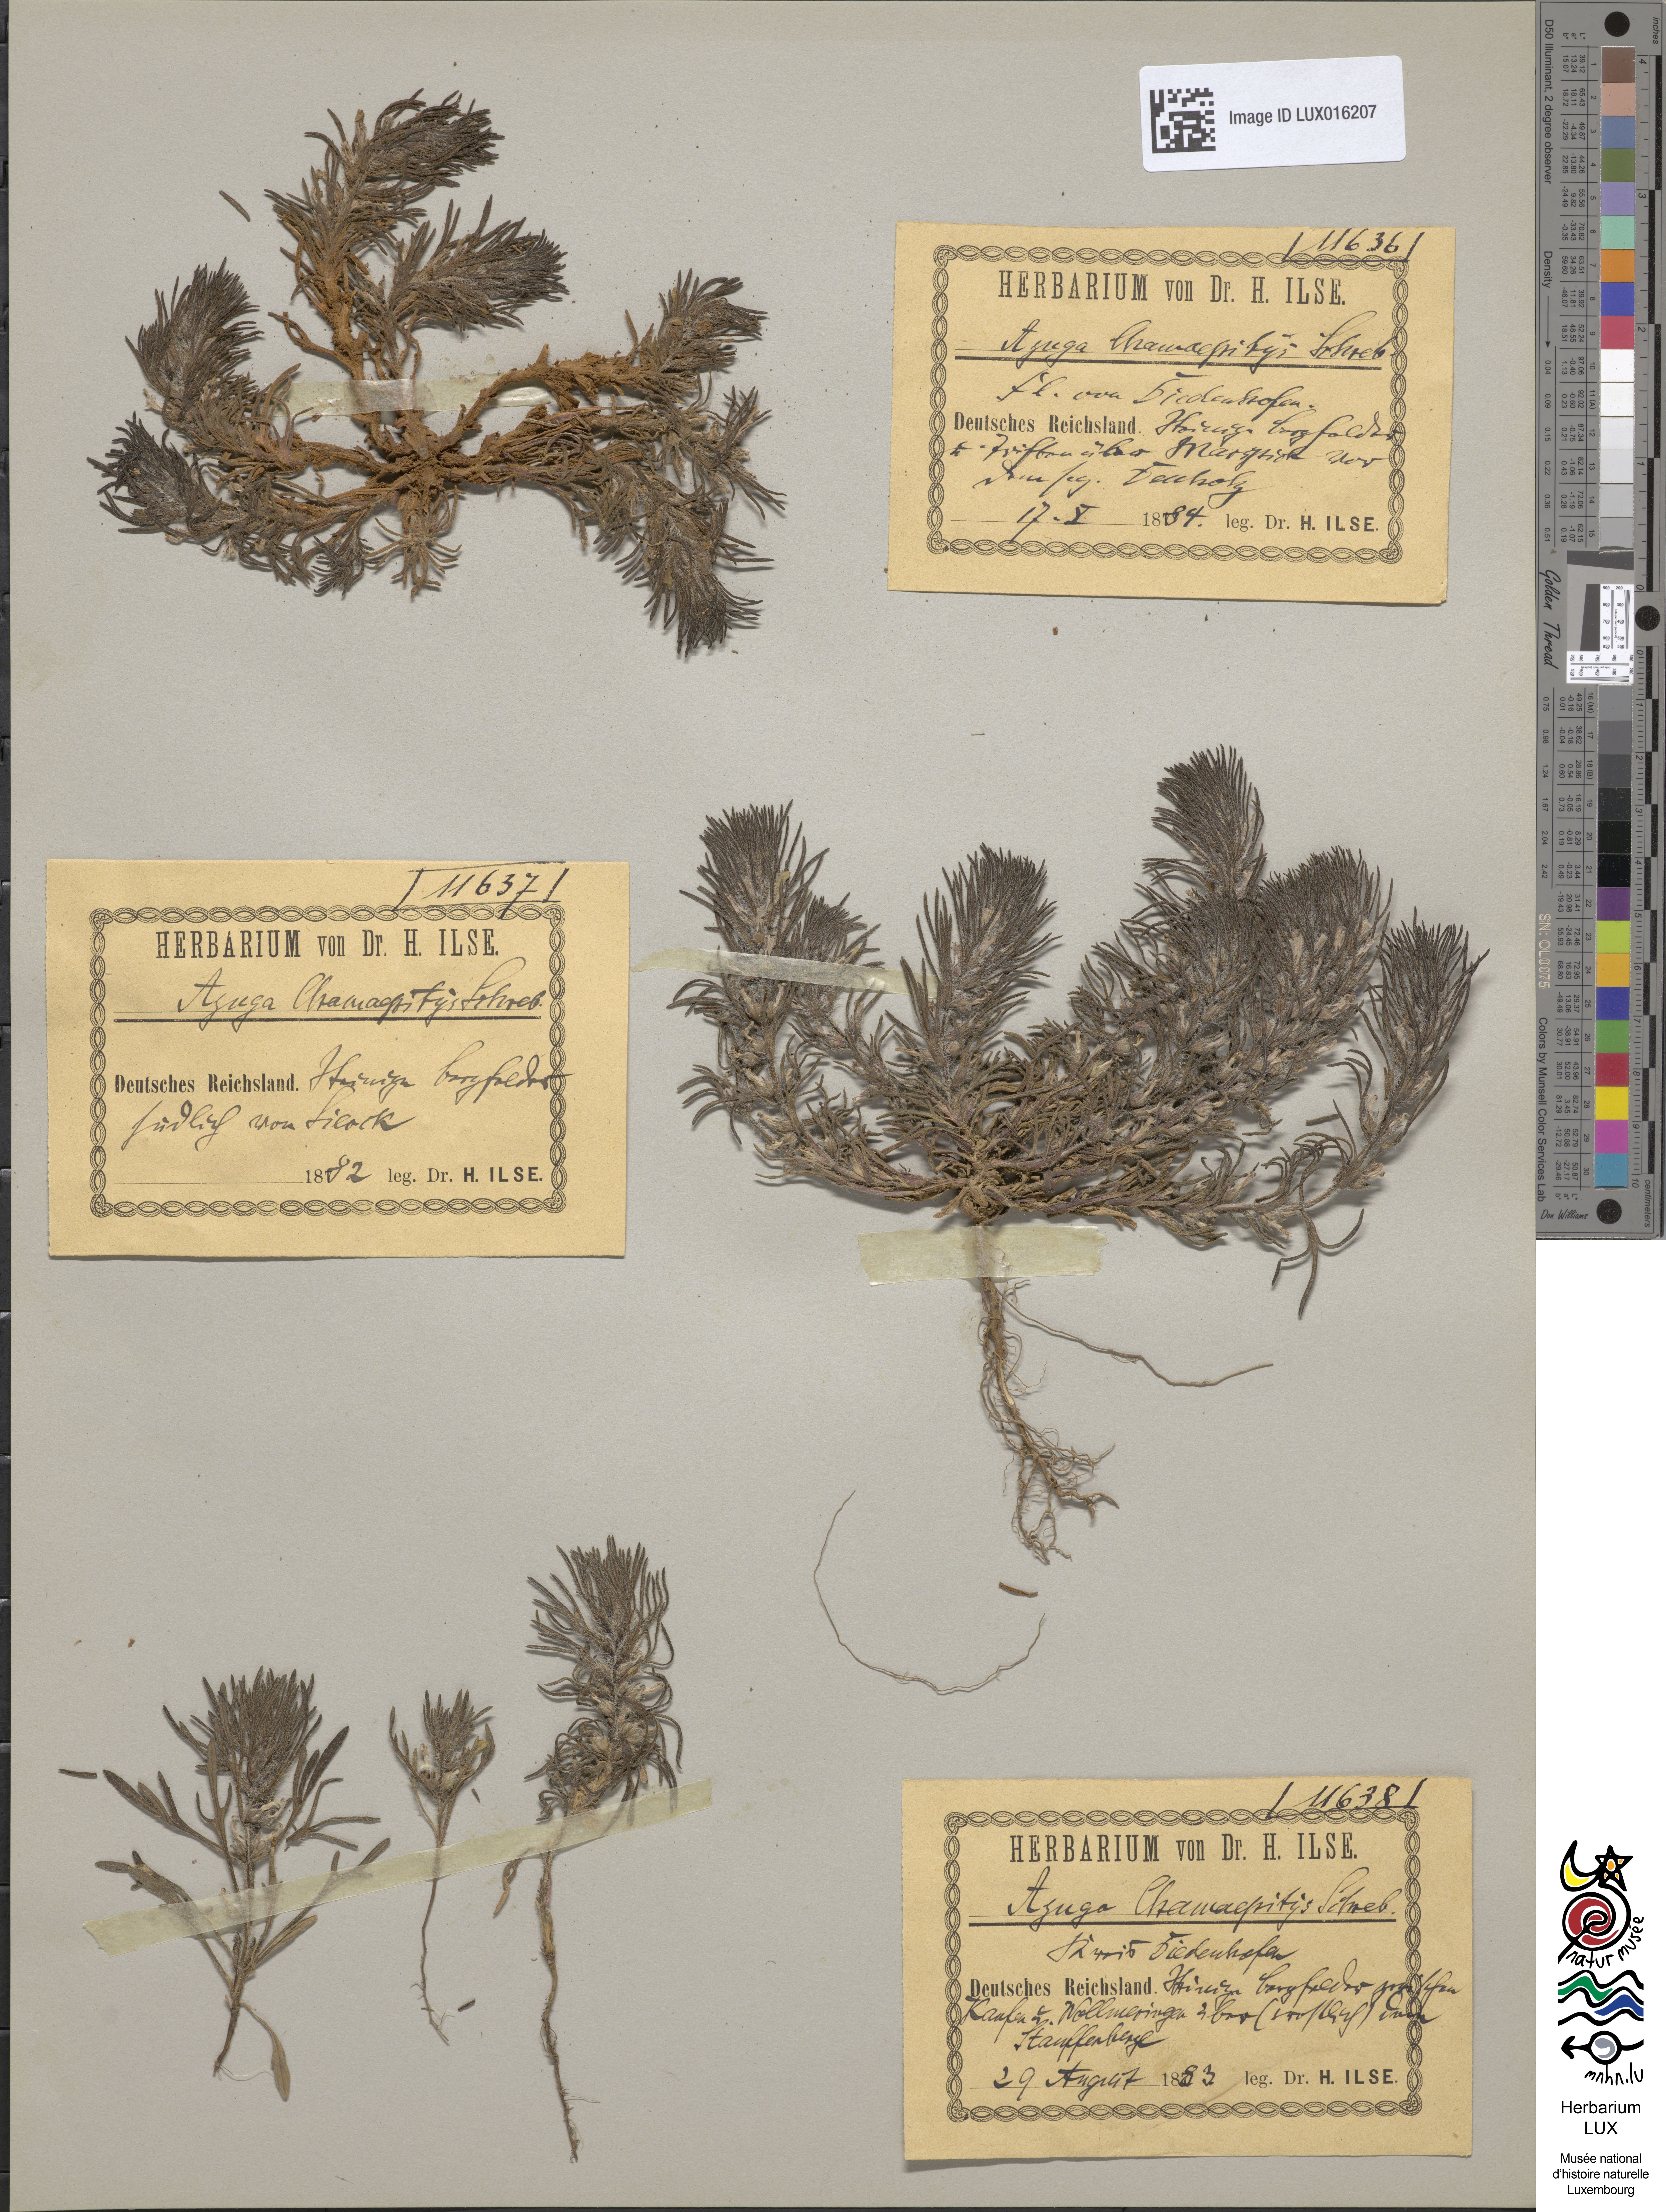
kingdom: Plantae
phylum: Tracheophyta
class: Magnoliopsida
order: Lamiales
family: Lamiaceae
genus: Ajuga
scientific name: Ajuga chamaepitys
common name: Ground-pine
